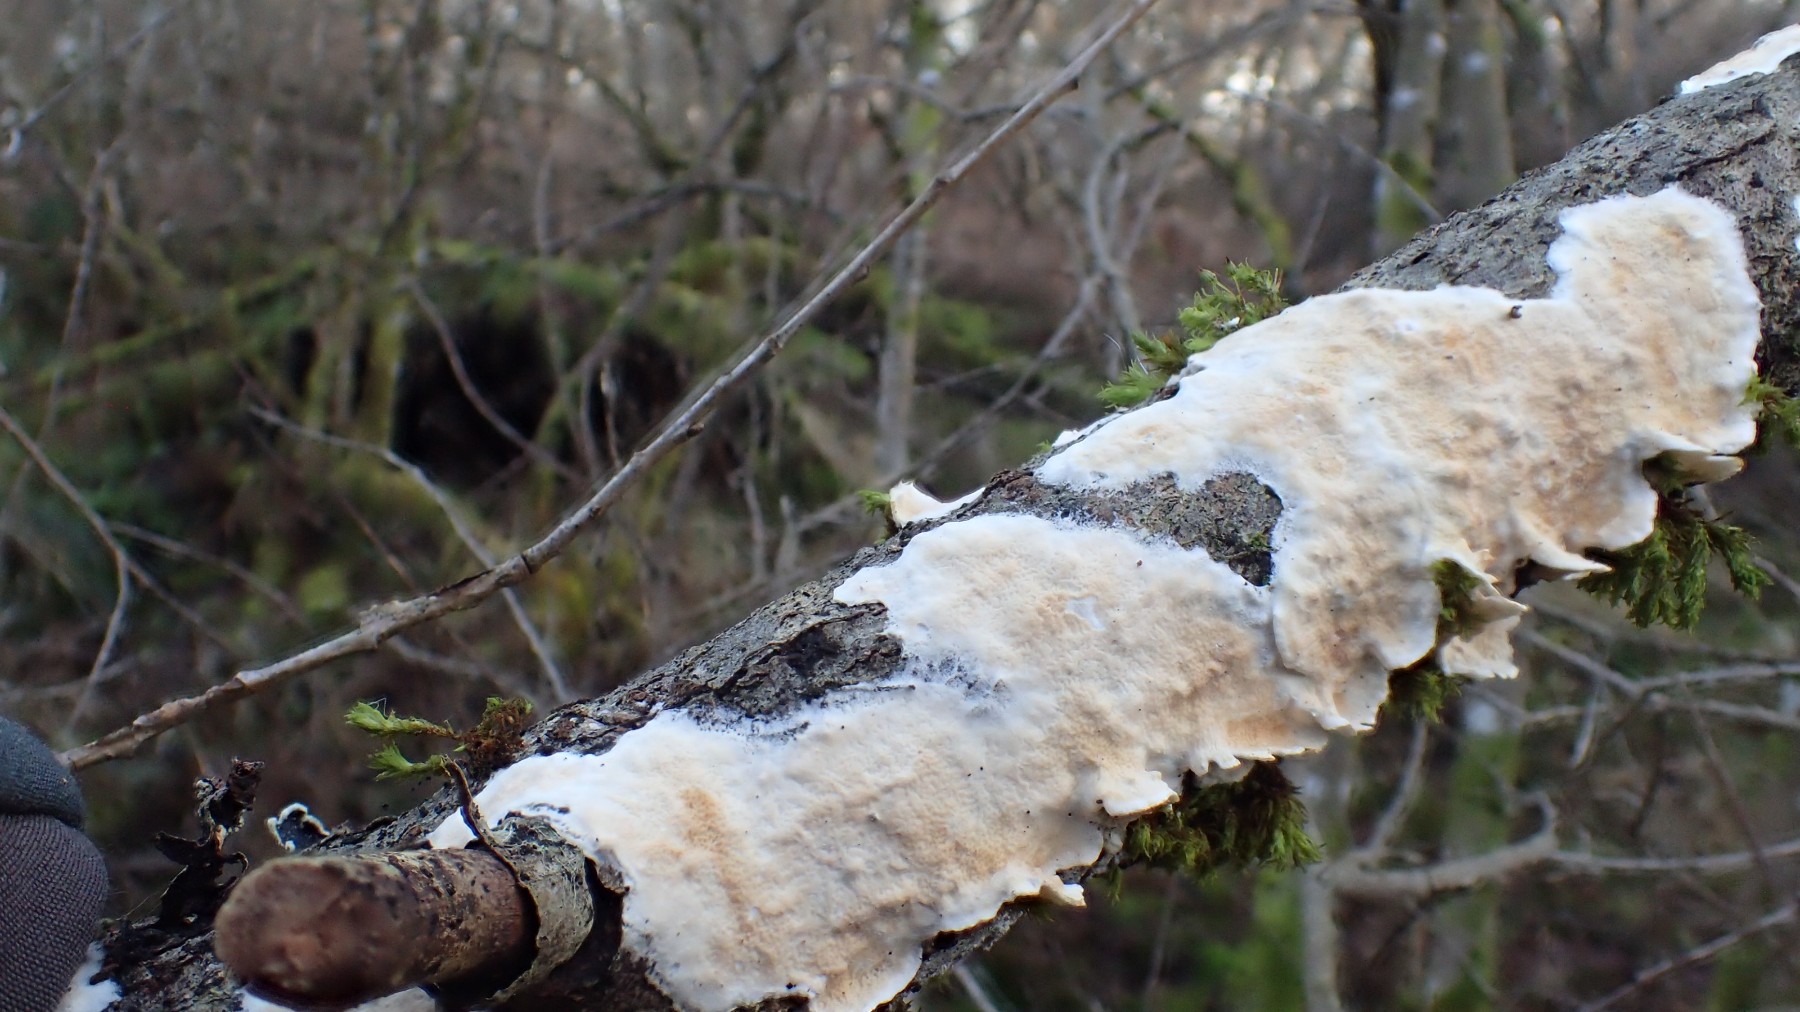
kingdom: Fungi
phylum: Basidiomycota
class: Agaricomycetes
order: Polyporales
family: Irpicaceae
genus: Byssomerulius
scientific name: Byssomerulius corium
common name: læder-åresvamp
